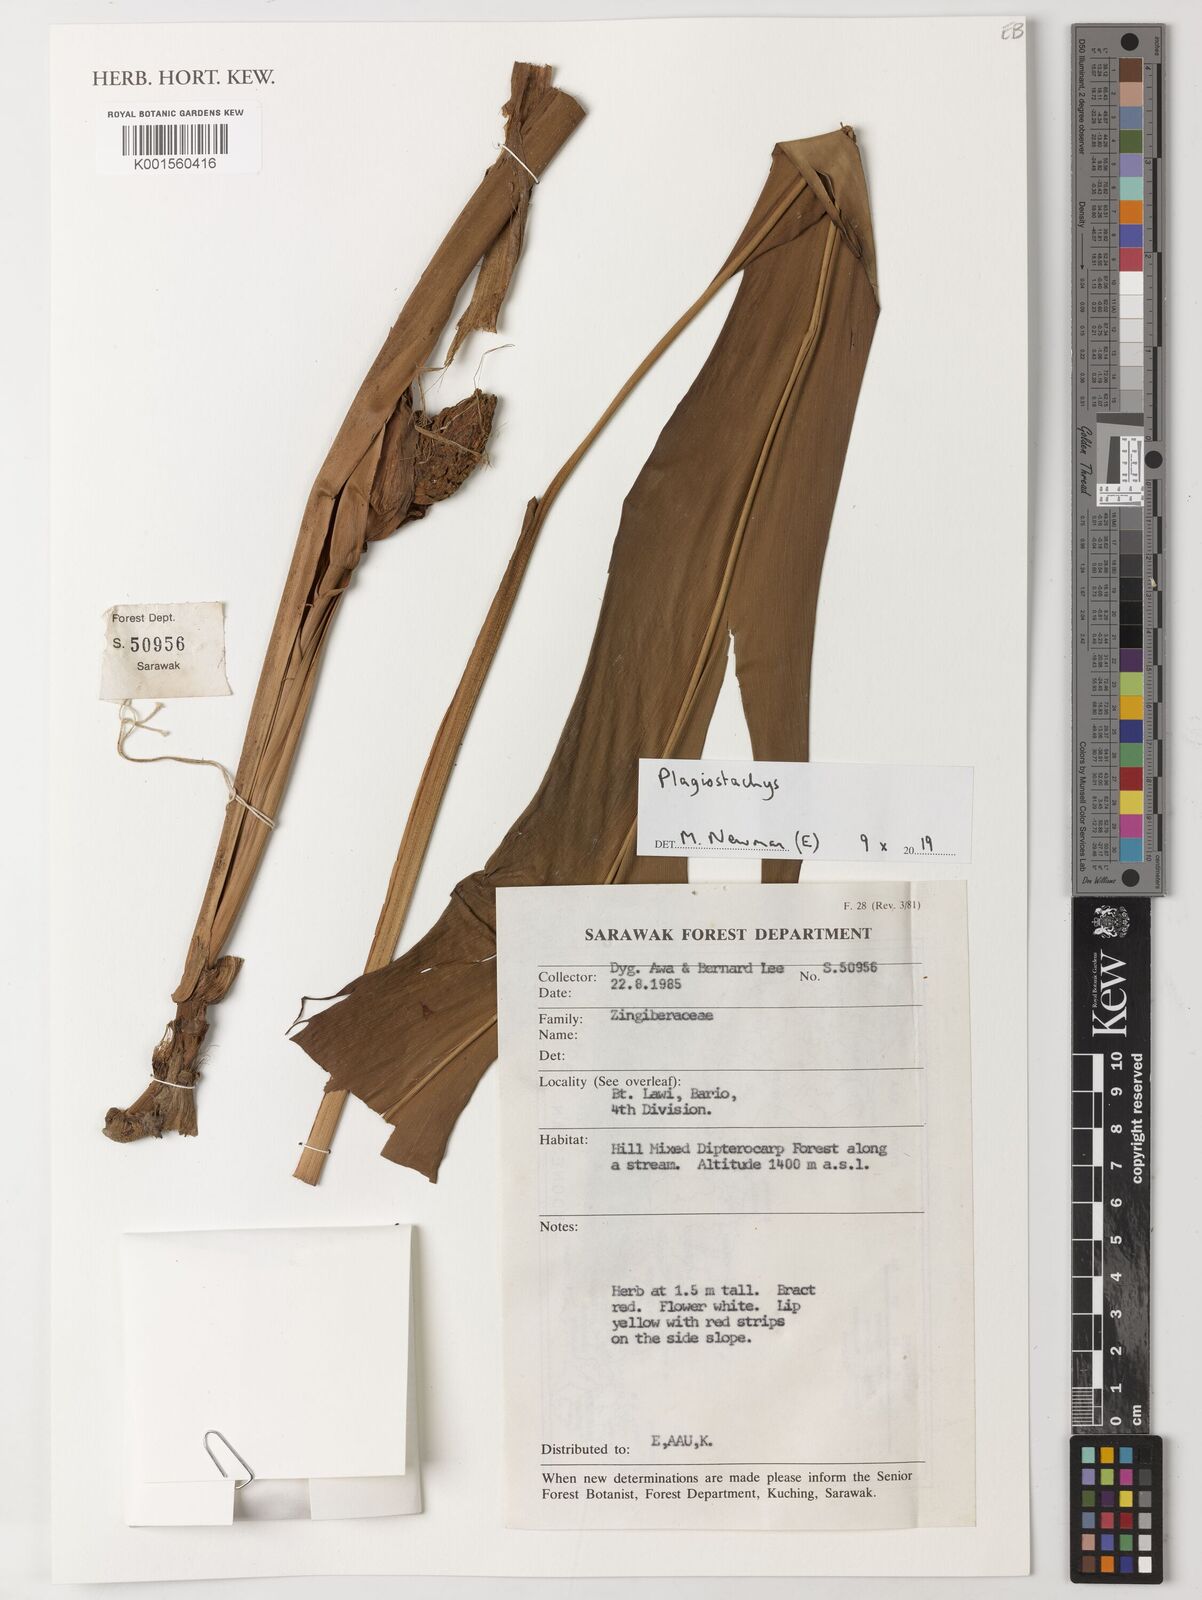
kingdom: Plantae
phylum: Tracheophyta
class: Liliopsida
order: Zingiberales
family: Zingiberaceae
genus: Plagiostachys
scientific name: Plagiostachys
